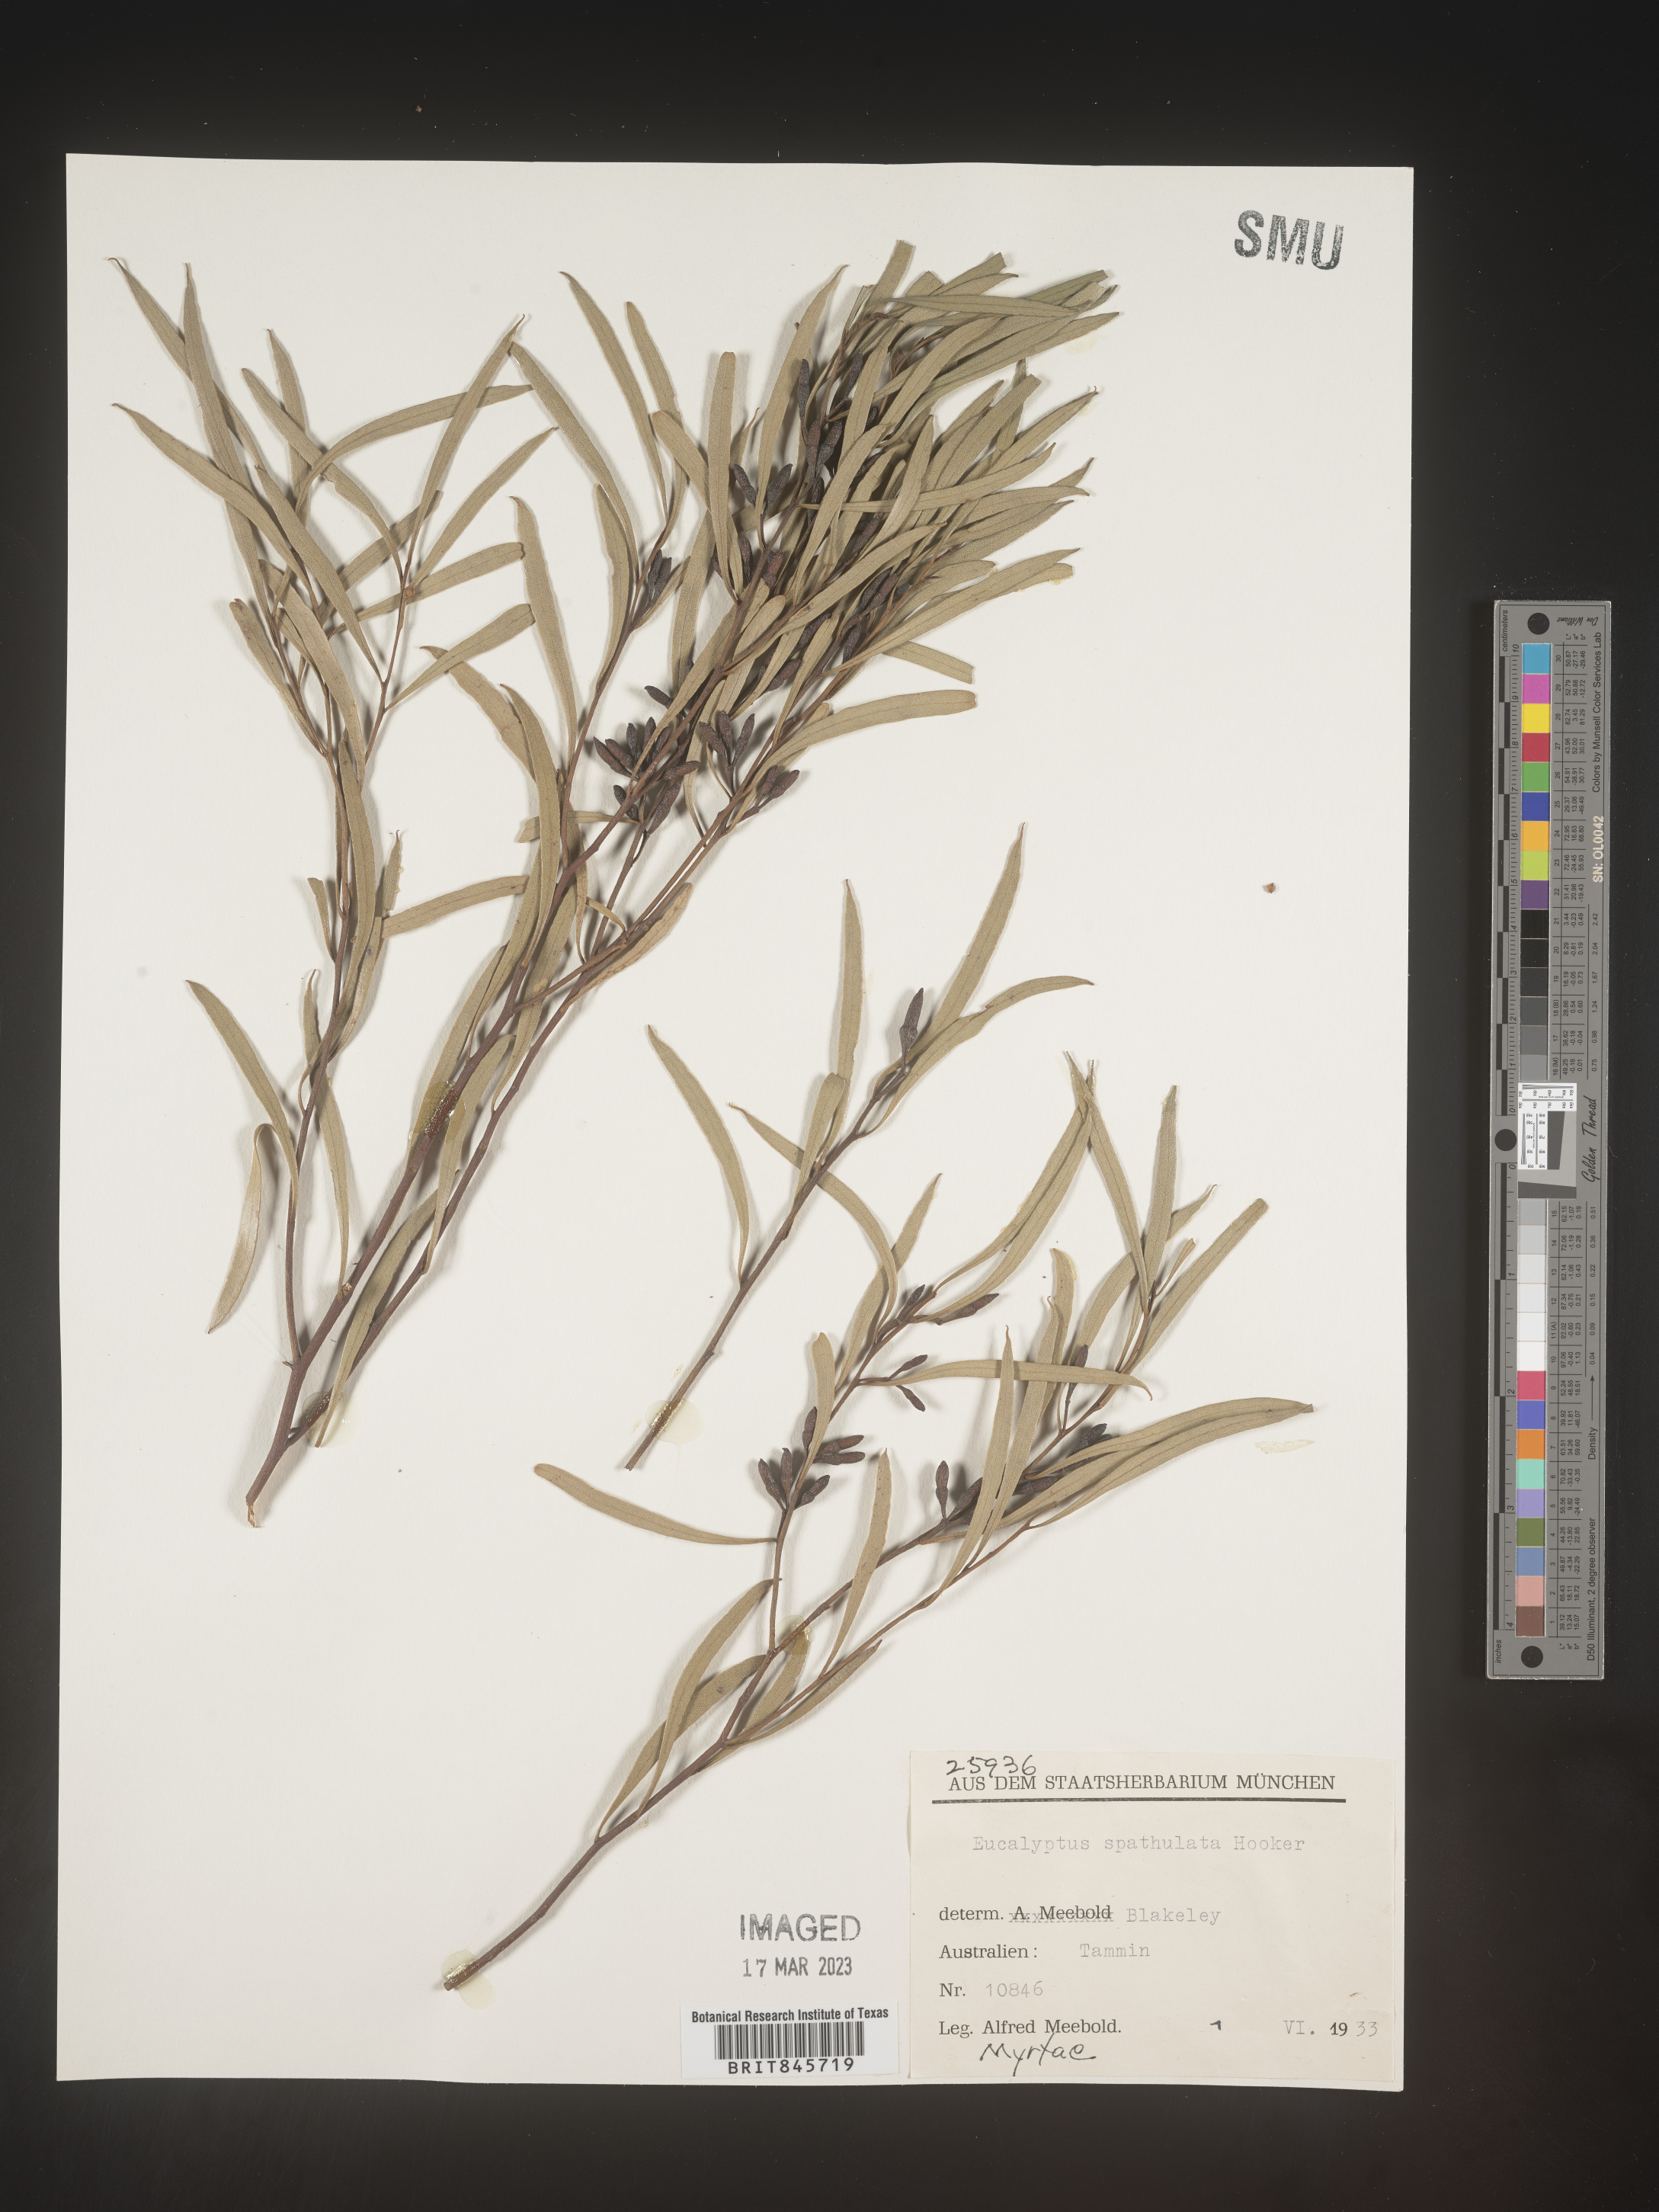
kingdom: Plantae
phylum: Tracheophyta
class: Magnoliopsida
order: Myrtales
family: Myrtaceae
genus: Eucalyptus
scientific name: Eucalyptus
